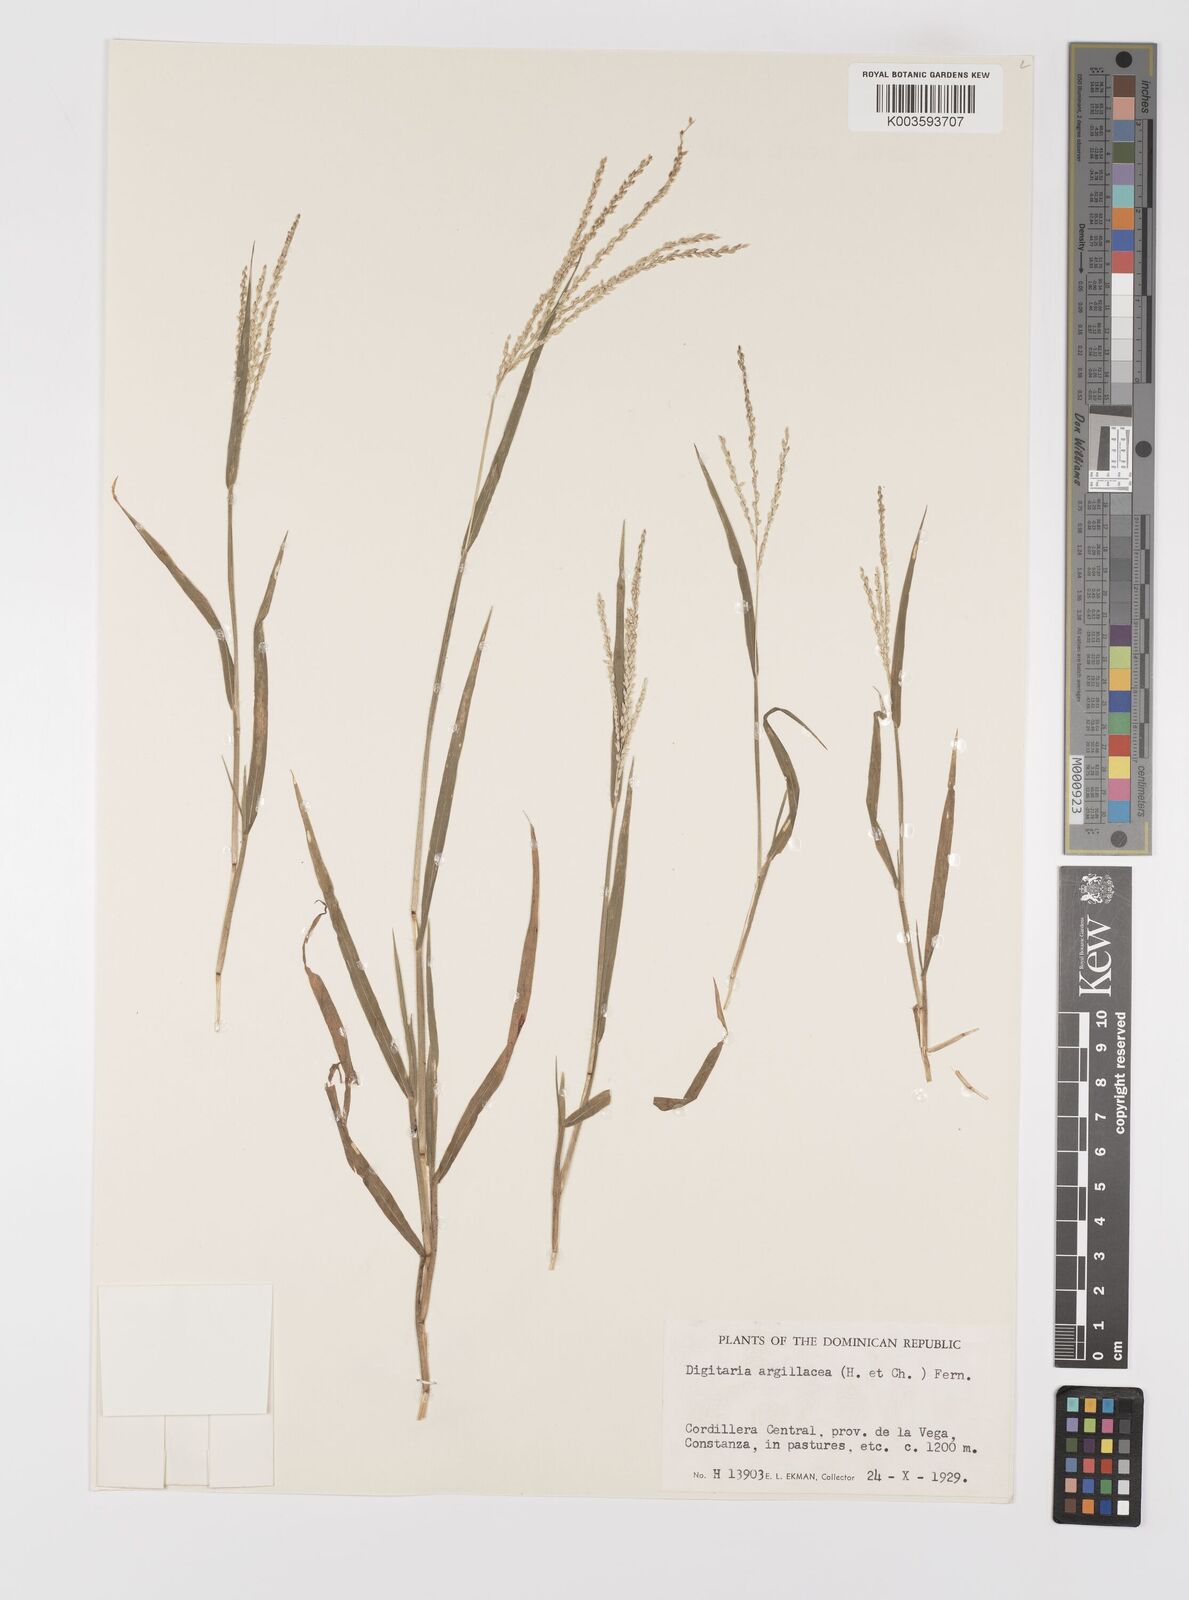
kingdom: Plantae
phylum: Tracheophyta
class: Liliopsida
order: Poales
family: Poaceae
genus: Digitaria
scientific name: Digitaria argillacea
